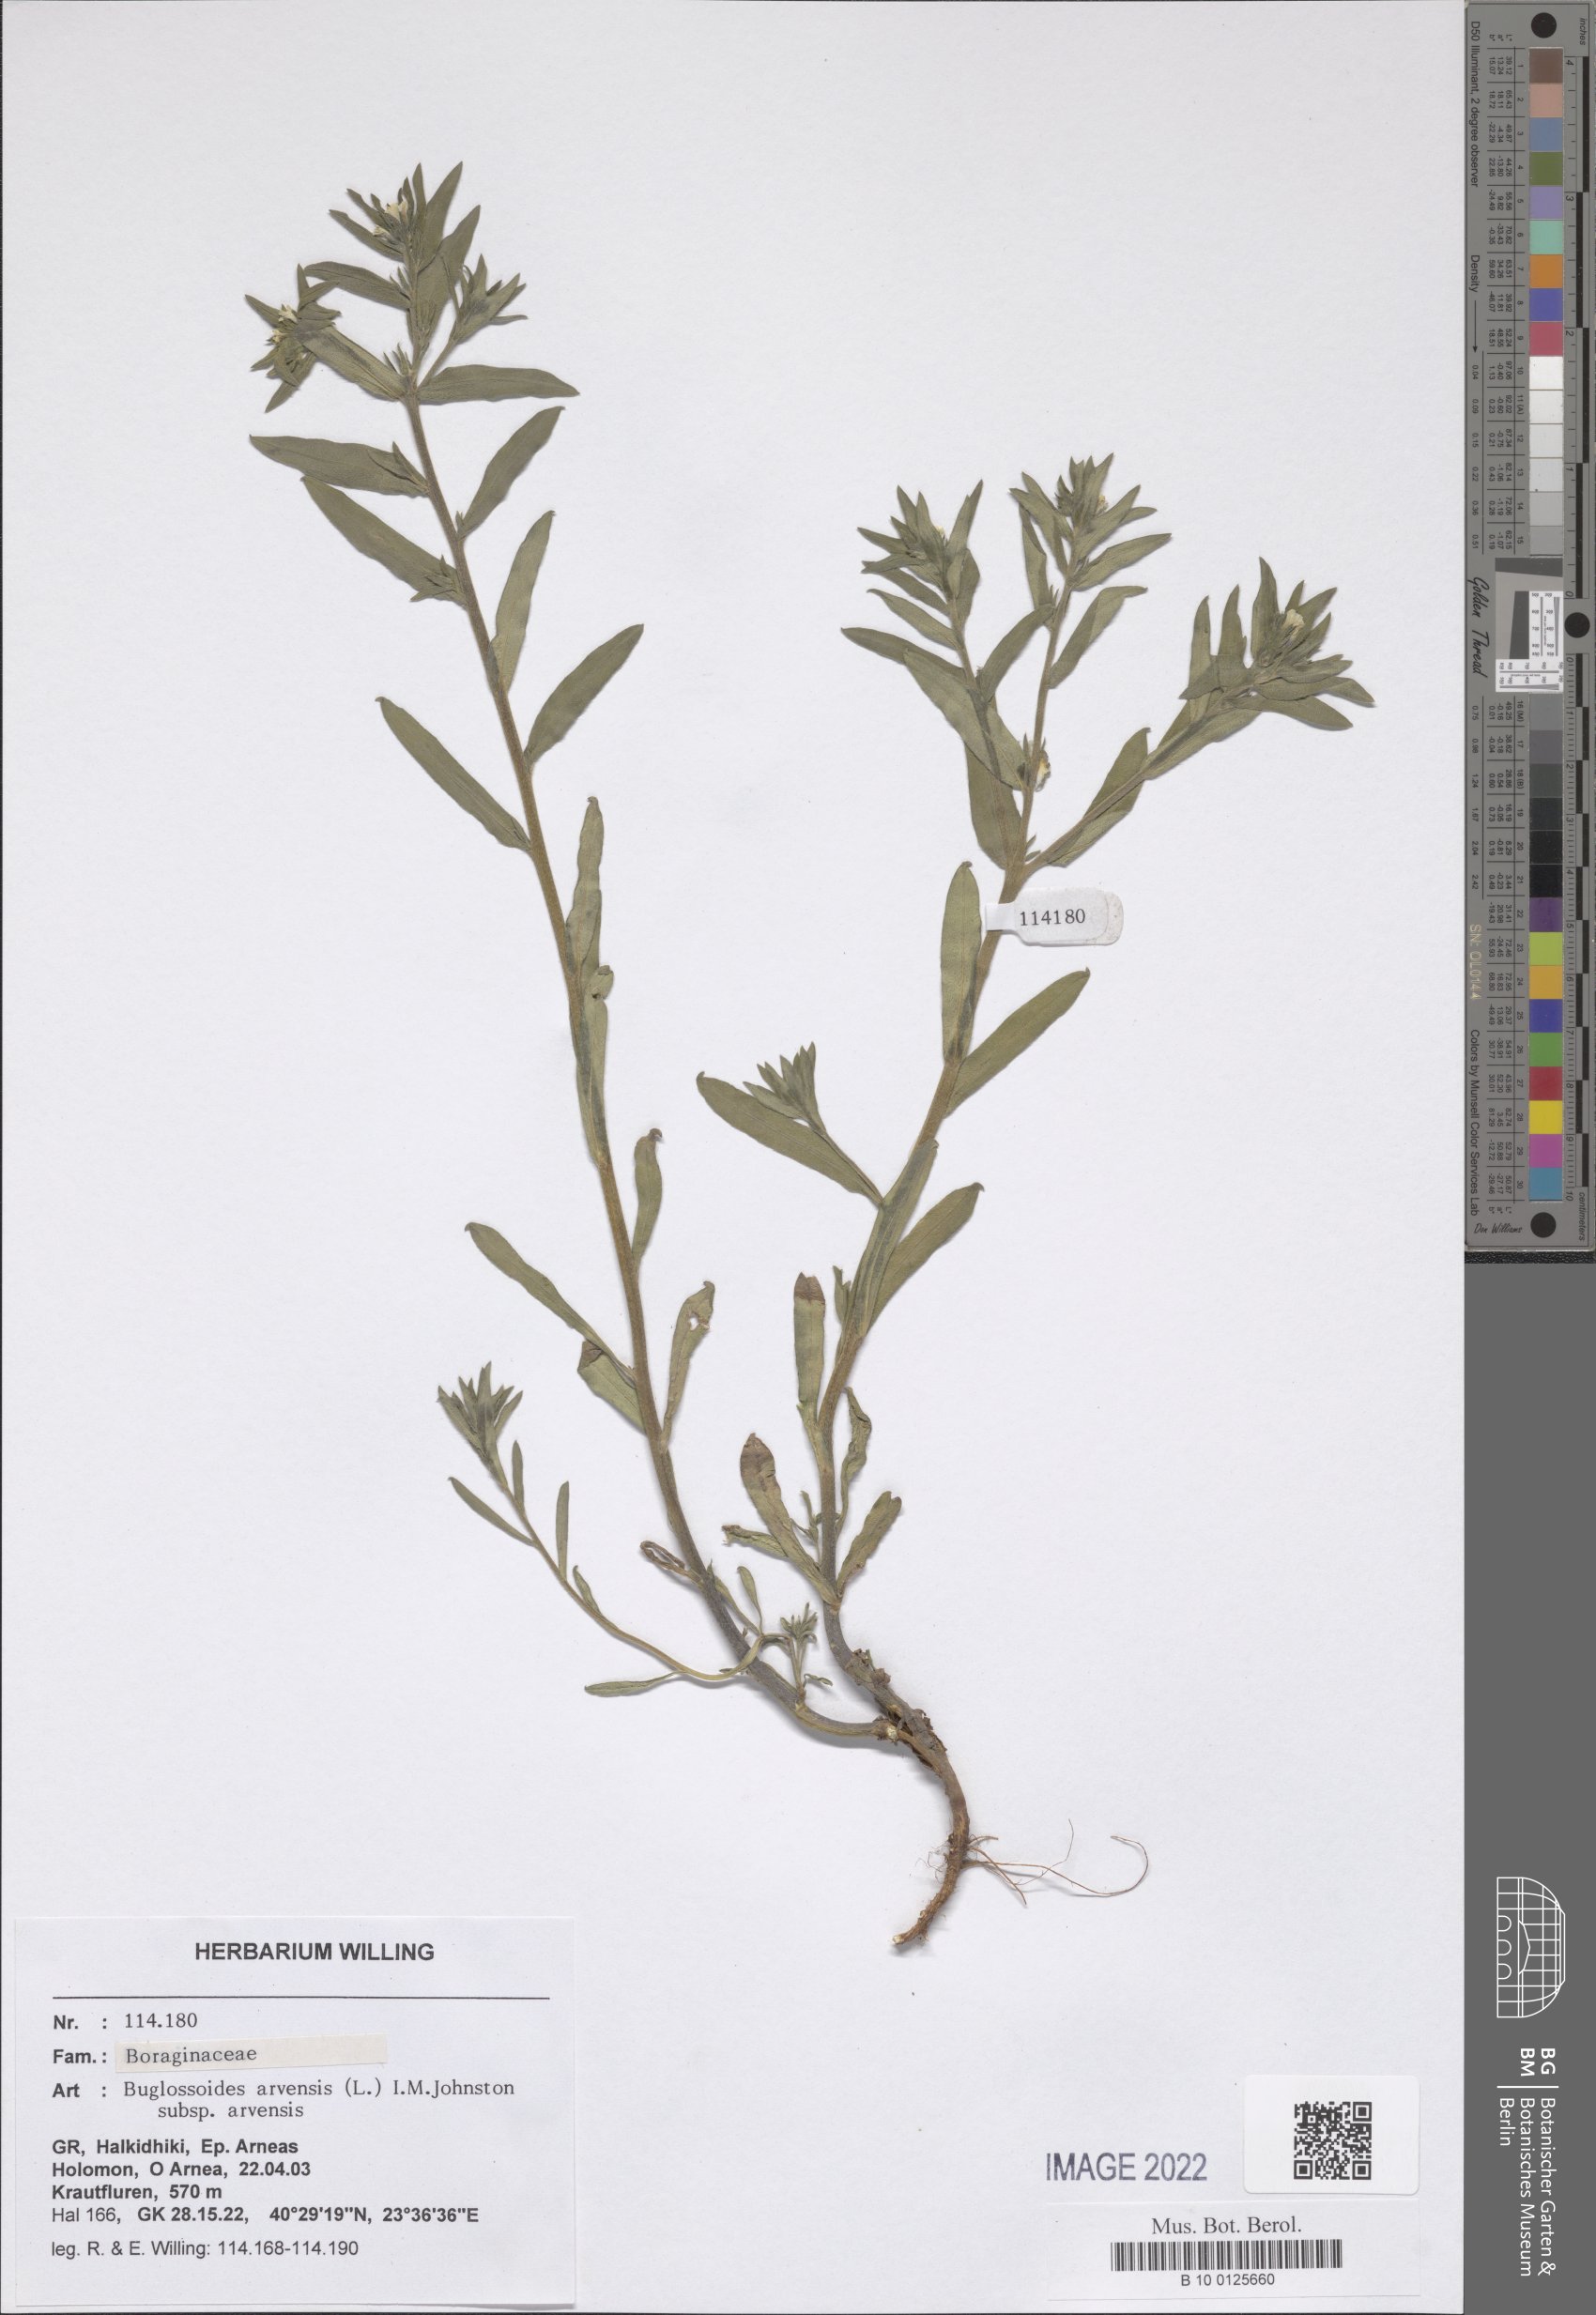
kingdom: Plantae
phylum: Tracheophyta
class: Magnoliopsida
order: Boraginales
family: Boraginaceae
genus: Buglossoides
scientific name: Buglossoides arvensis
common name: Corn gromwell
